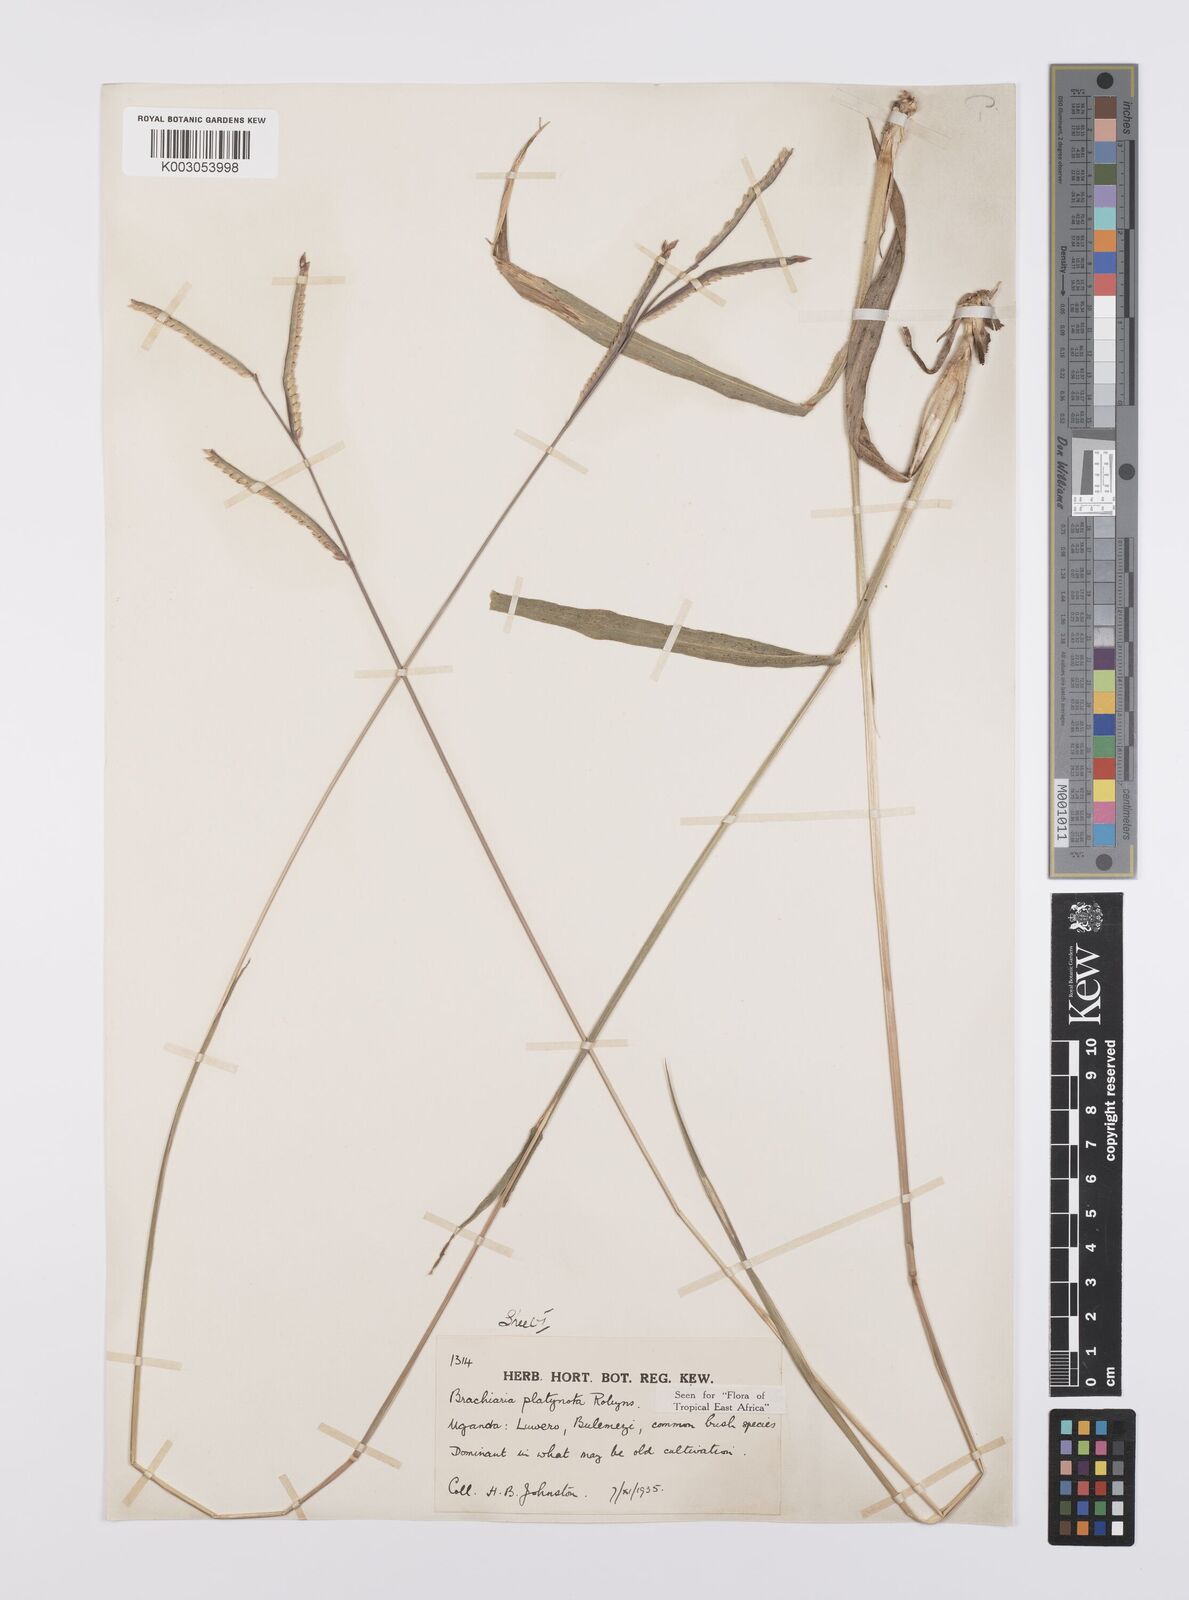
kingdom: Plantae
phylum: Tracheophyta
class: Liliopsida
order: Poales
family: Poaceae
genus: Urochloa
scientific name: Urochloa platynota
